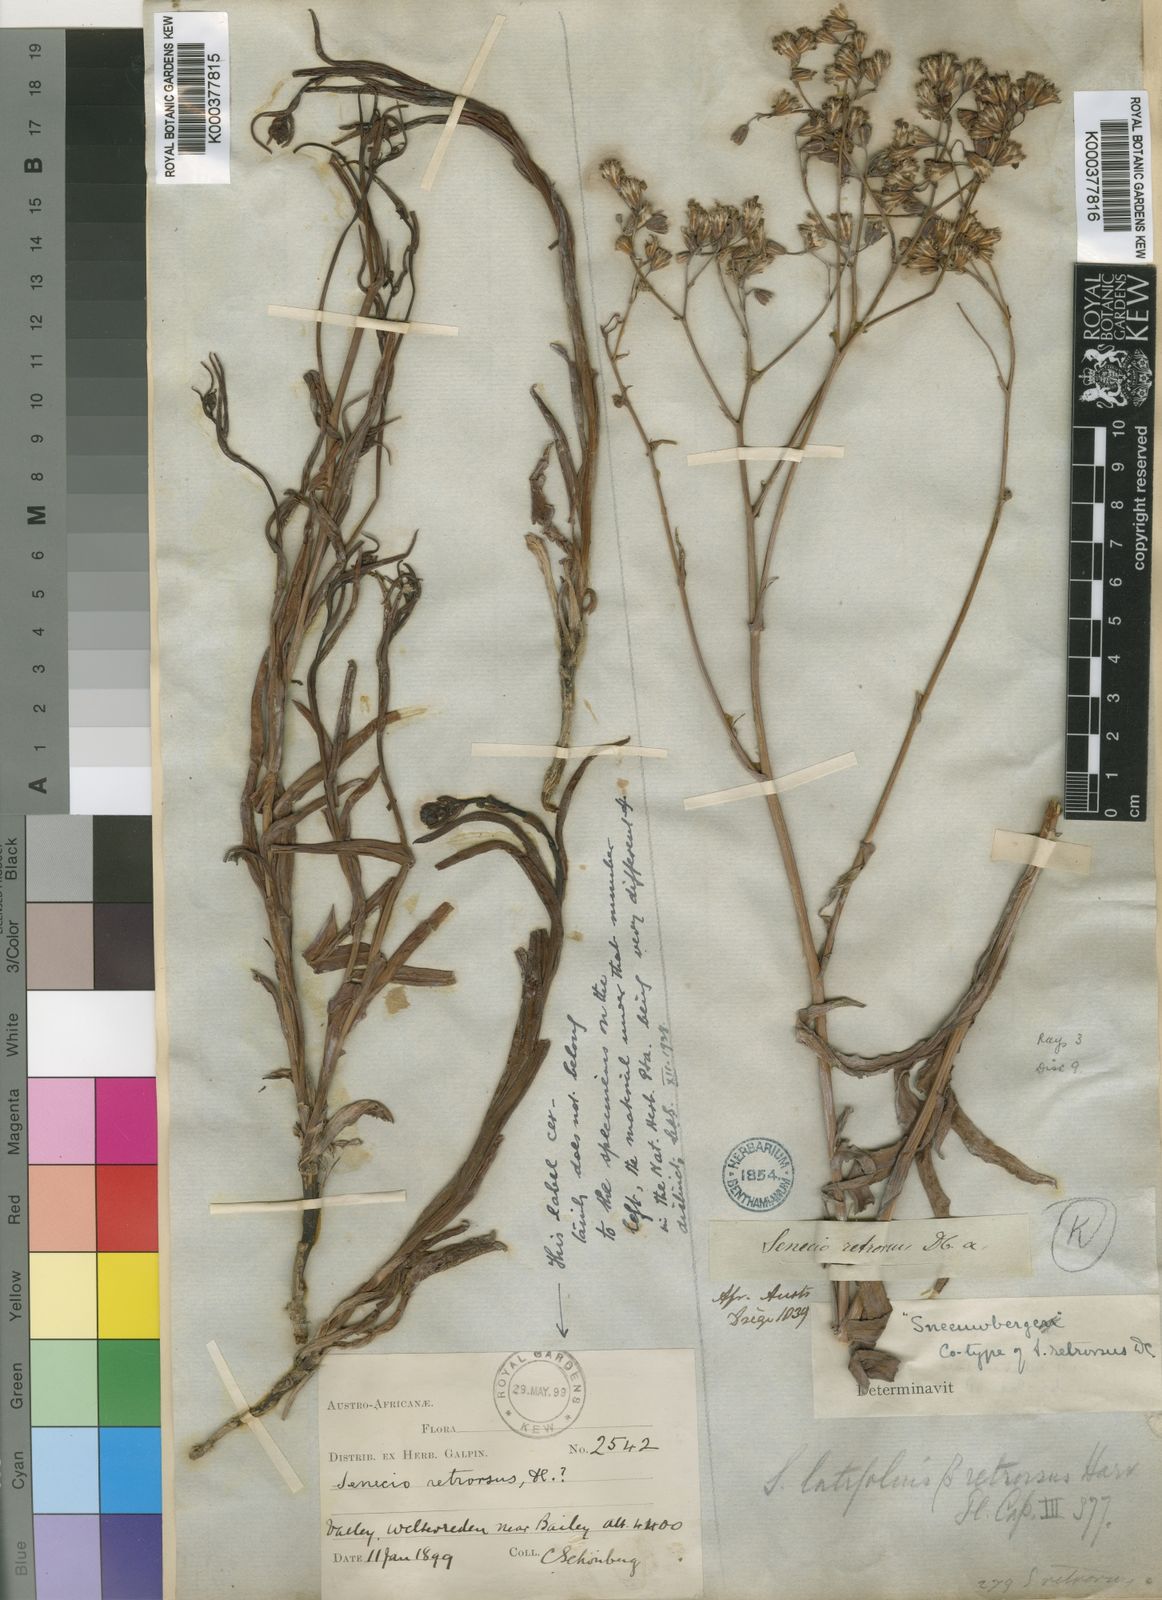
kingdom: Plantae
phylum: Tracheophyta
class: Magnoliopsida
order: Asterales
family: Asteraceae
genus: Senecio
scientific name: Senecio
